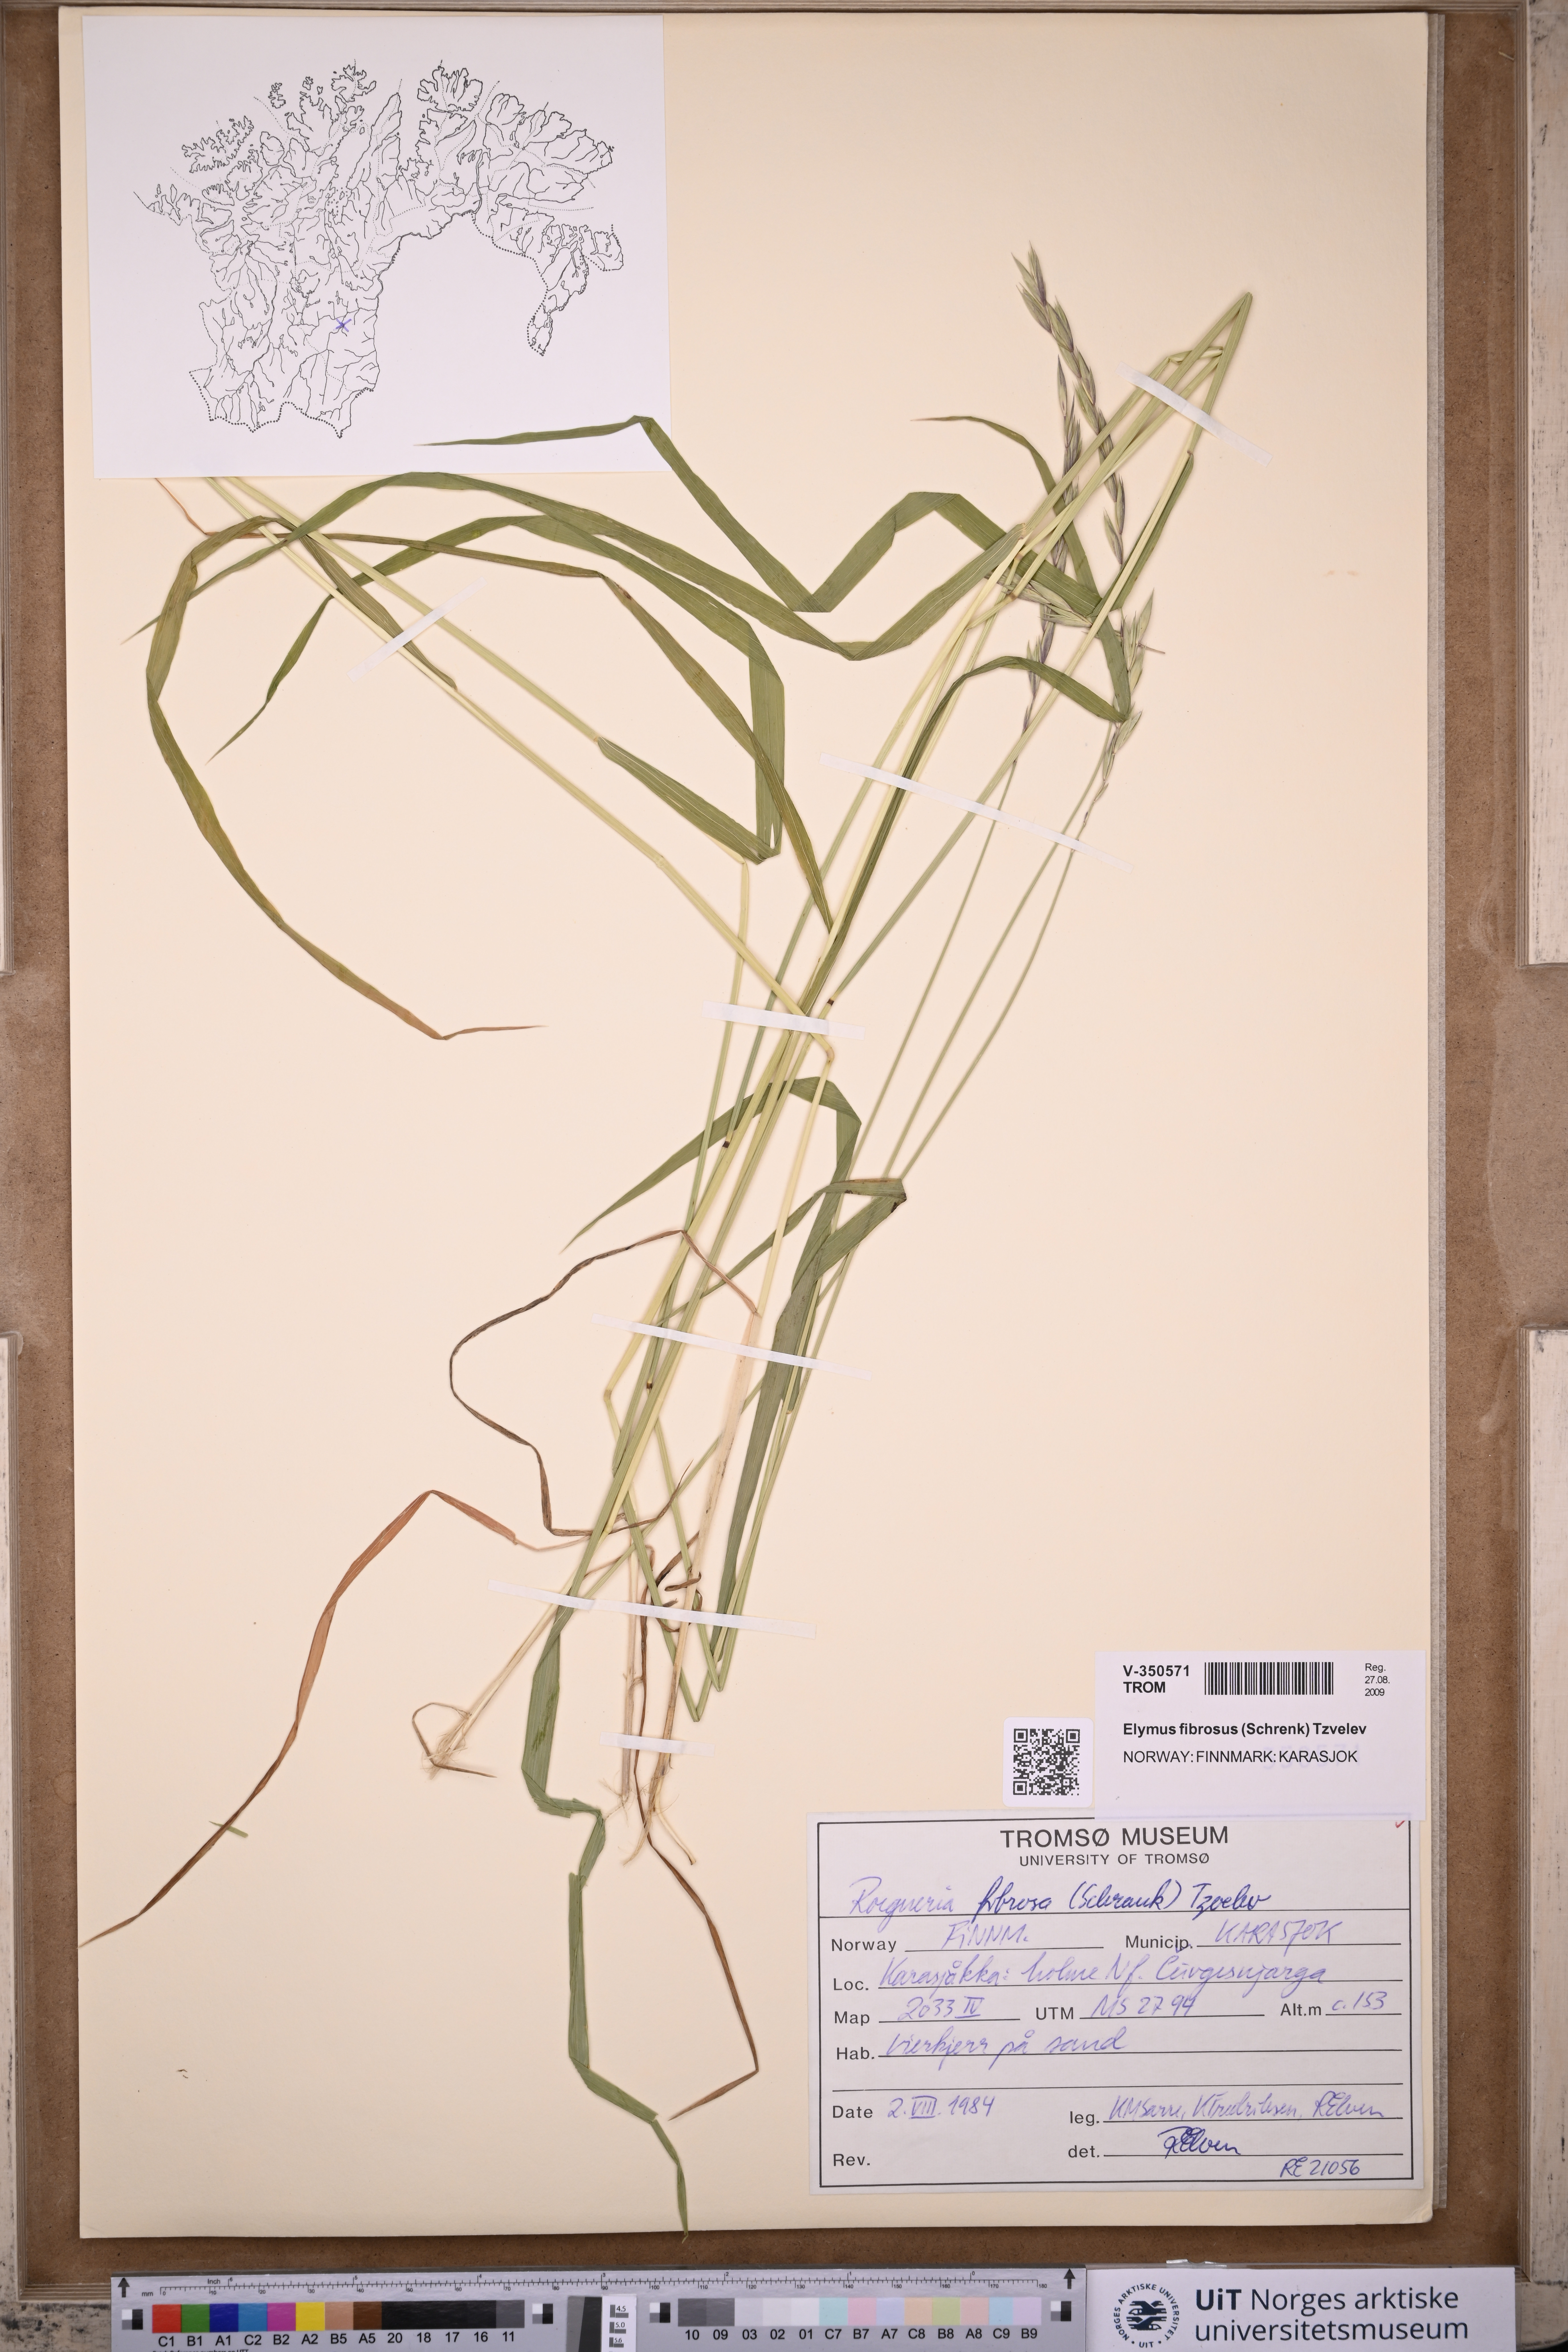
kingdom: Plantae
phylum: Tracheophyta
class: Liliopsida
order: Poales
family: Poaceae
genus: Elymus
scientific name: Elymus fibrosus
